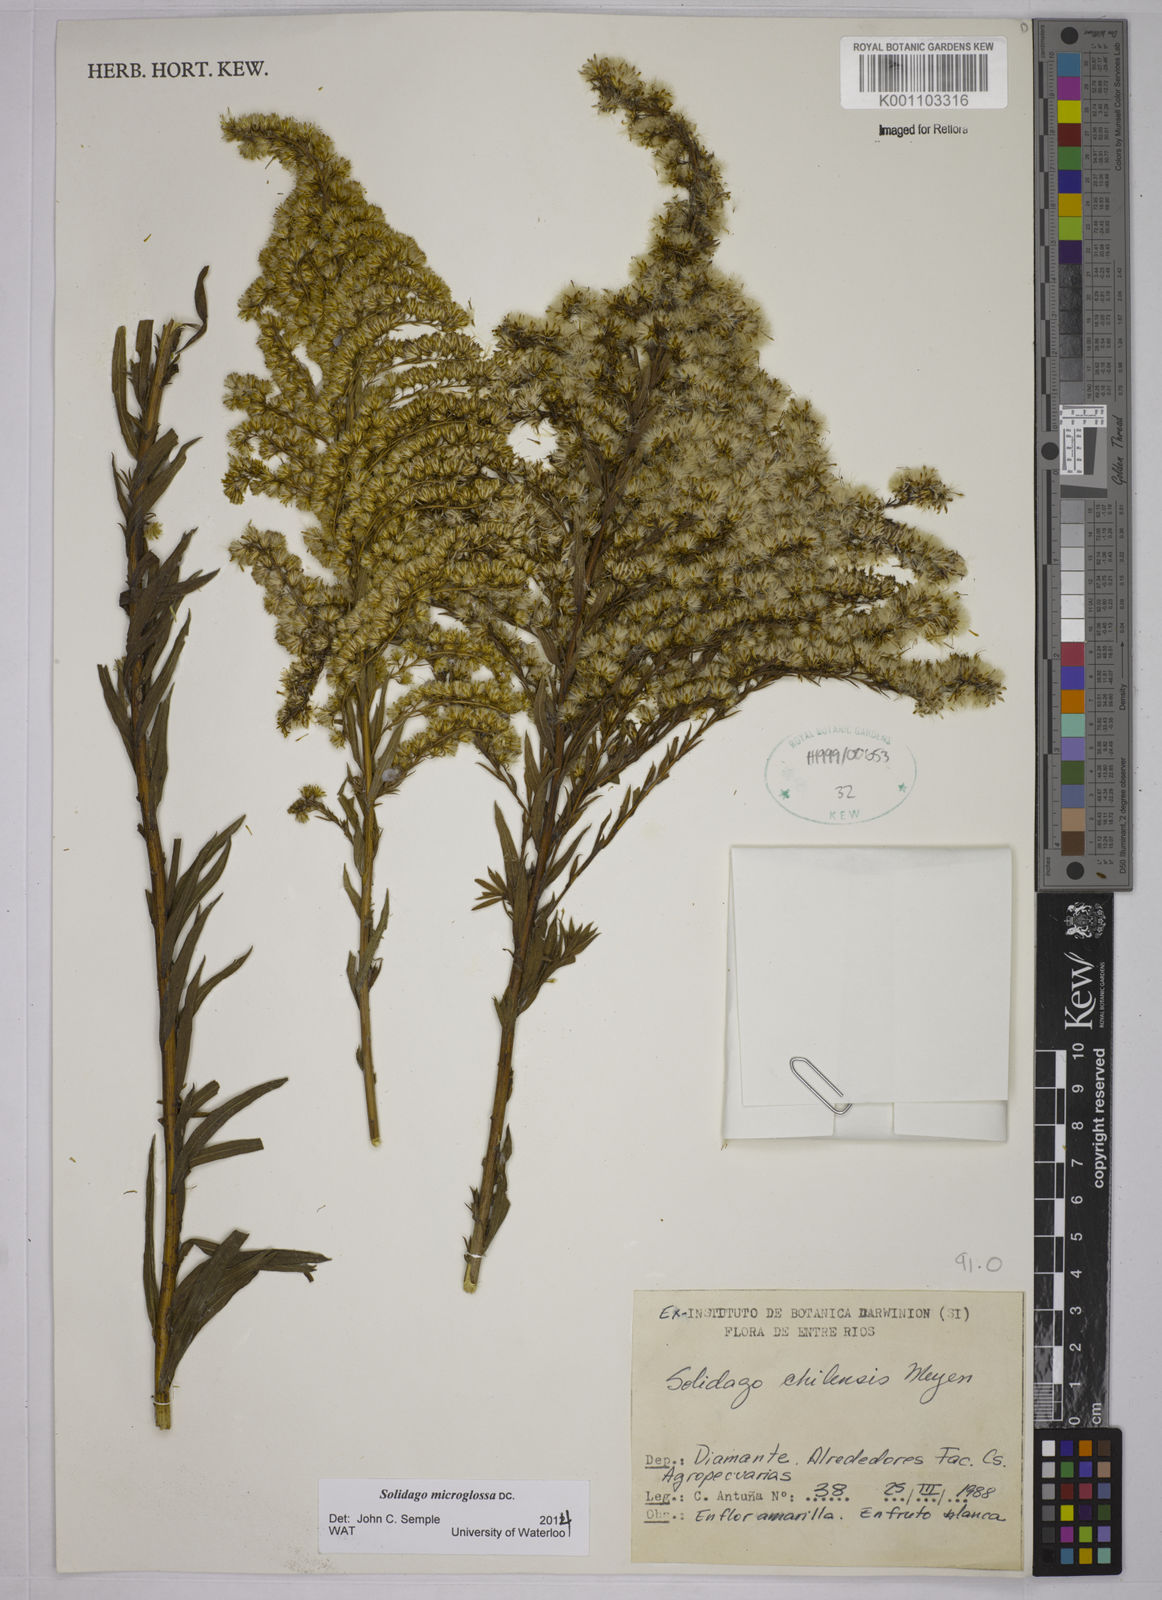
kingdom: Plantae
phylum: Tracheophyta
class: Magnoliopsida
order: Asterales
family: Asteraceae
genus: Solidago
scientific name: Solidago chilensis
